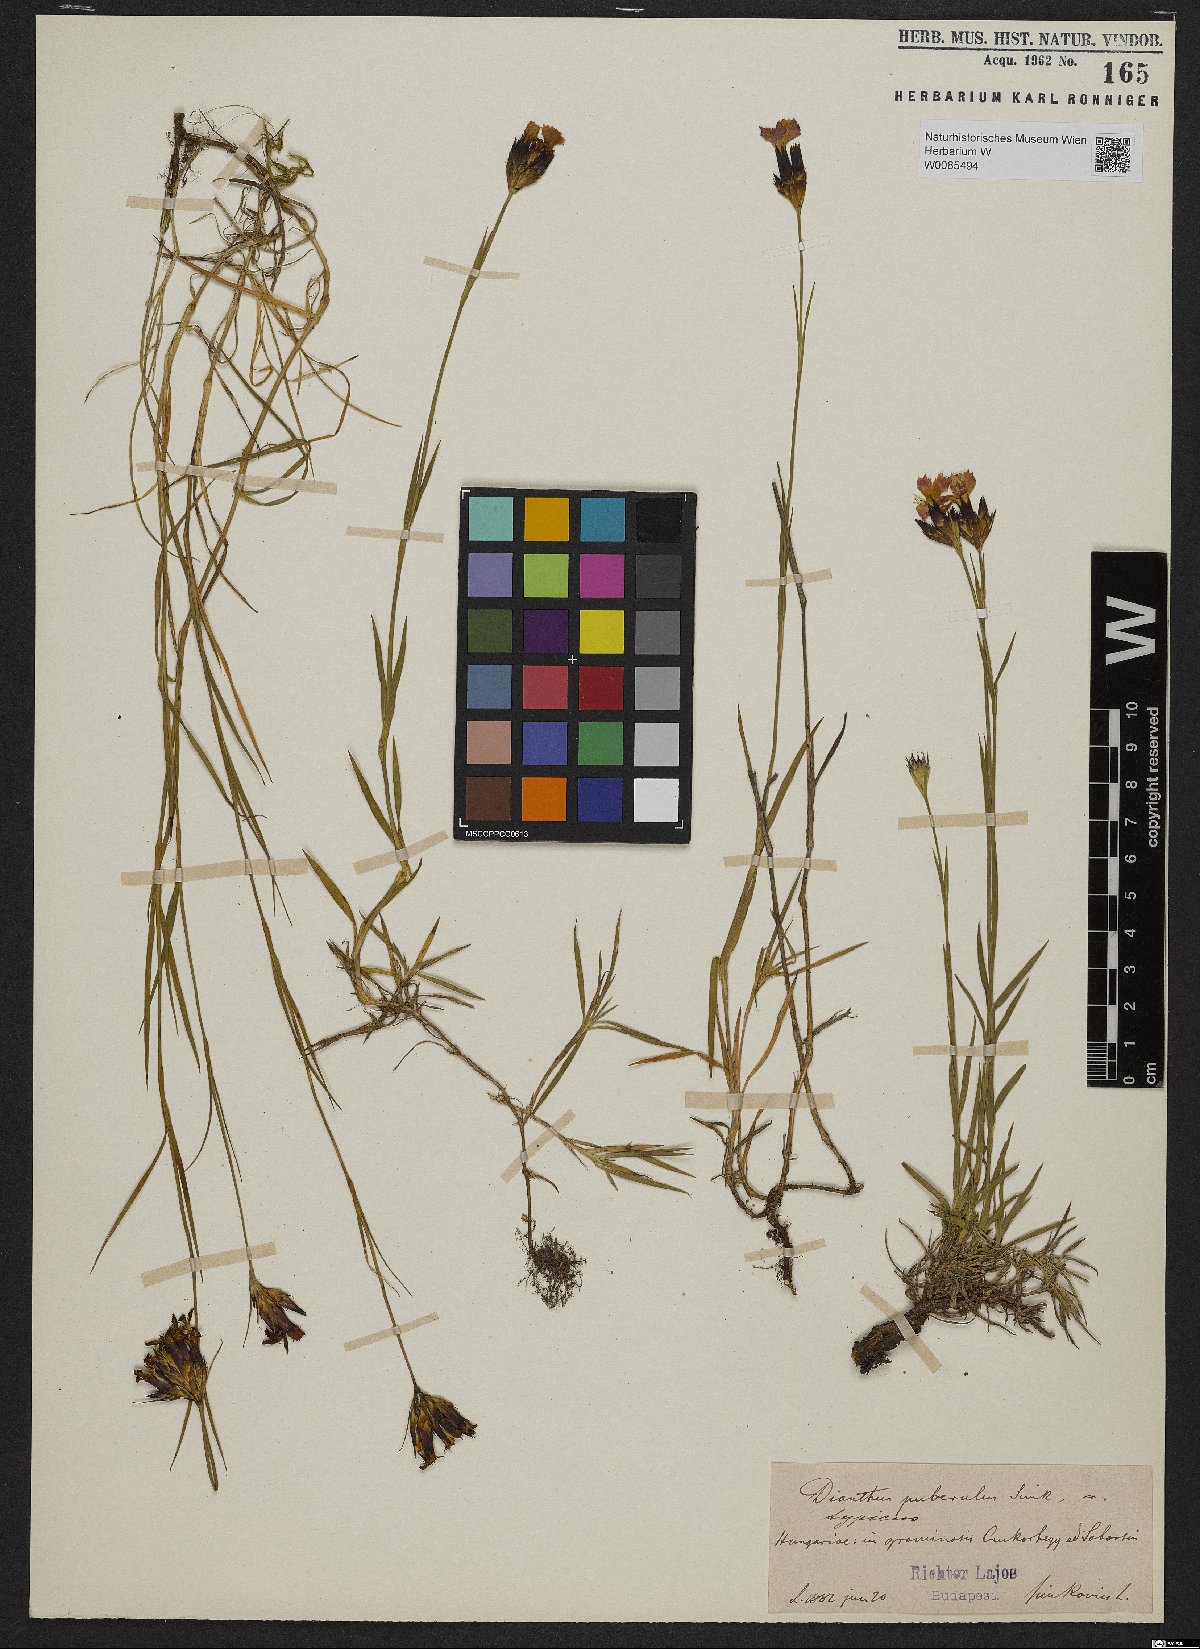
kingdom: Plantae
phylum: Tracheophyta
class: Magnoliopsida
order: Caryophyllales
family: Caryophyllaceae
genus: Dianthus
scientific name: Dianthus carthusianorum
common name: Carthusian pink
